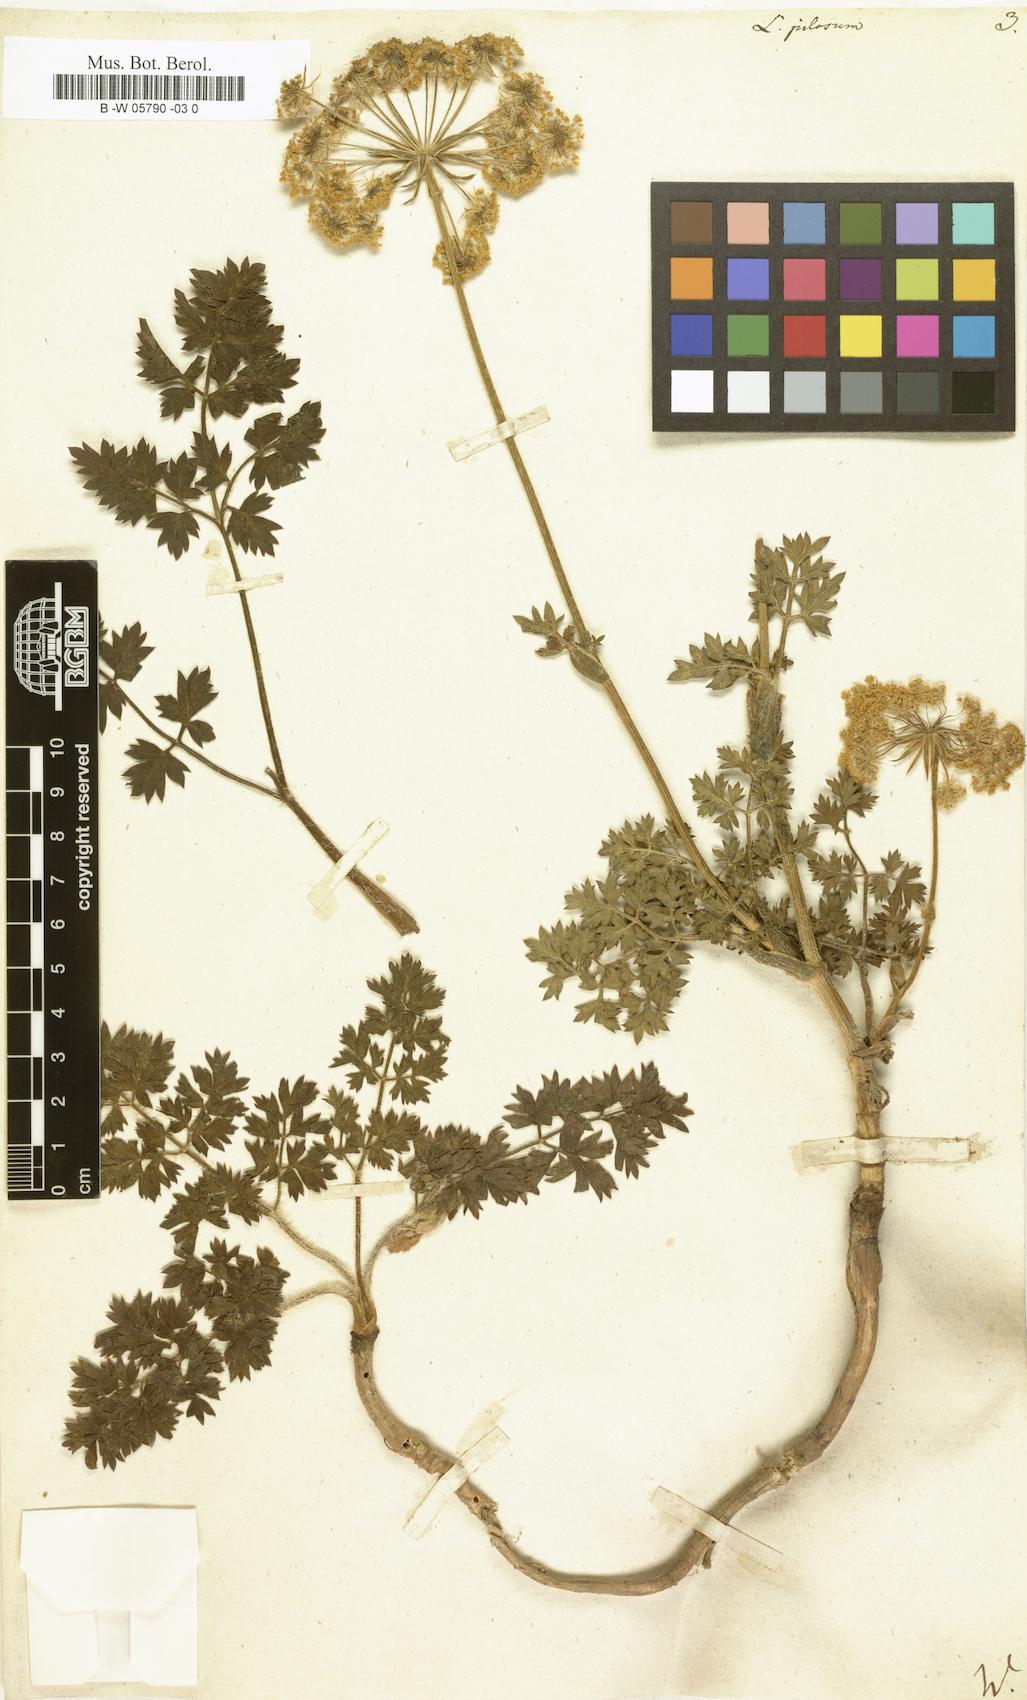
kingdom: Plantae
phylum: Tracheophyta
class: Magnoliopsida
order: Apiales
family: Apiaceae
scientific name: Apiaceae
